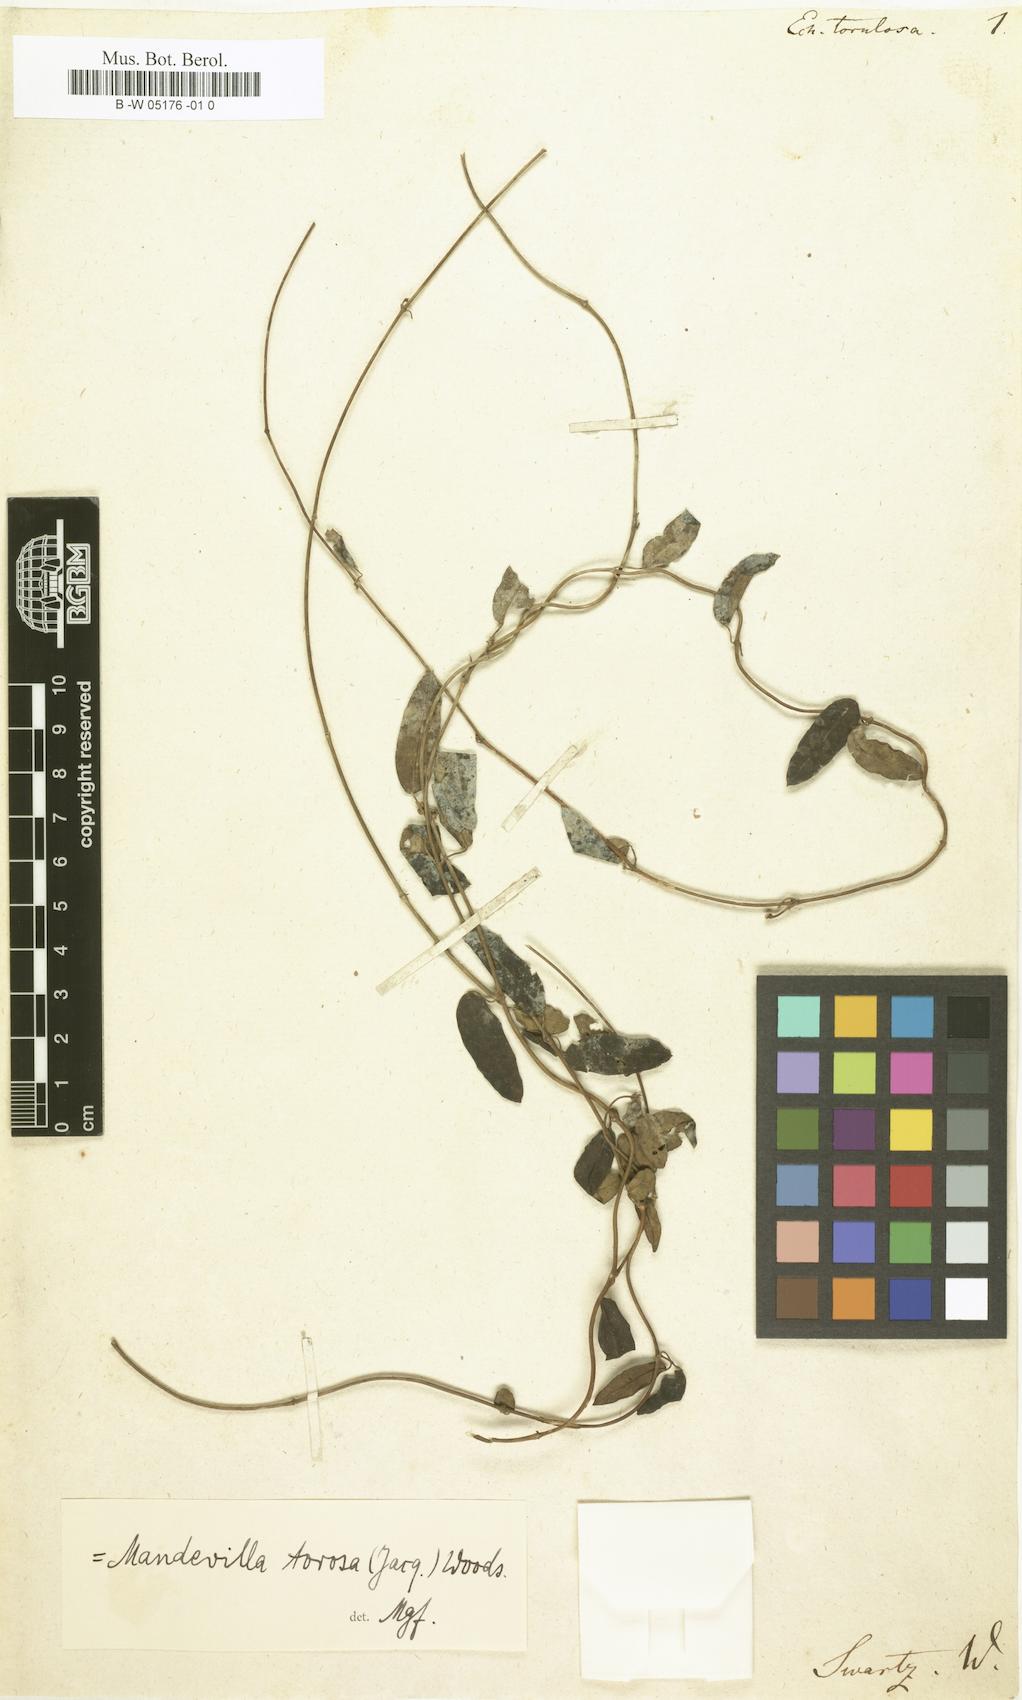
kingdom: Plantae
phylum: Tracheophyta
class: Magnoliopsida
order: Gentianales
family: Apocynaceae
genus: Mandevilla
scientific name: Mandevilla
